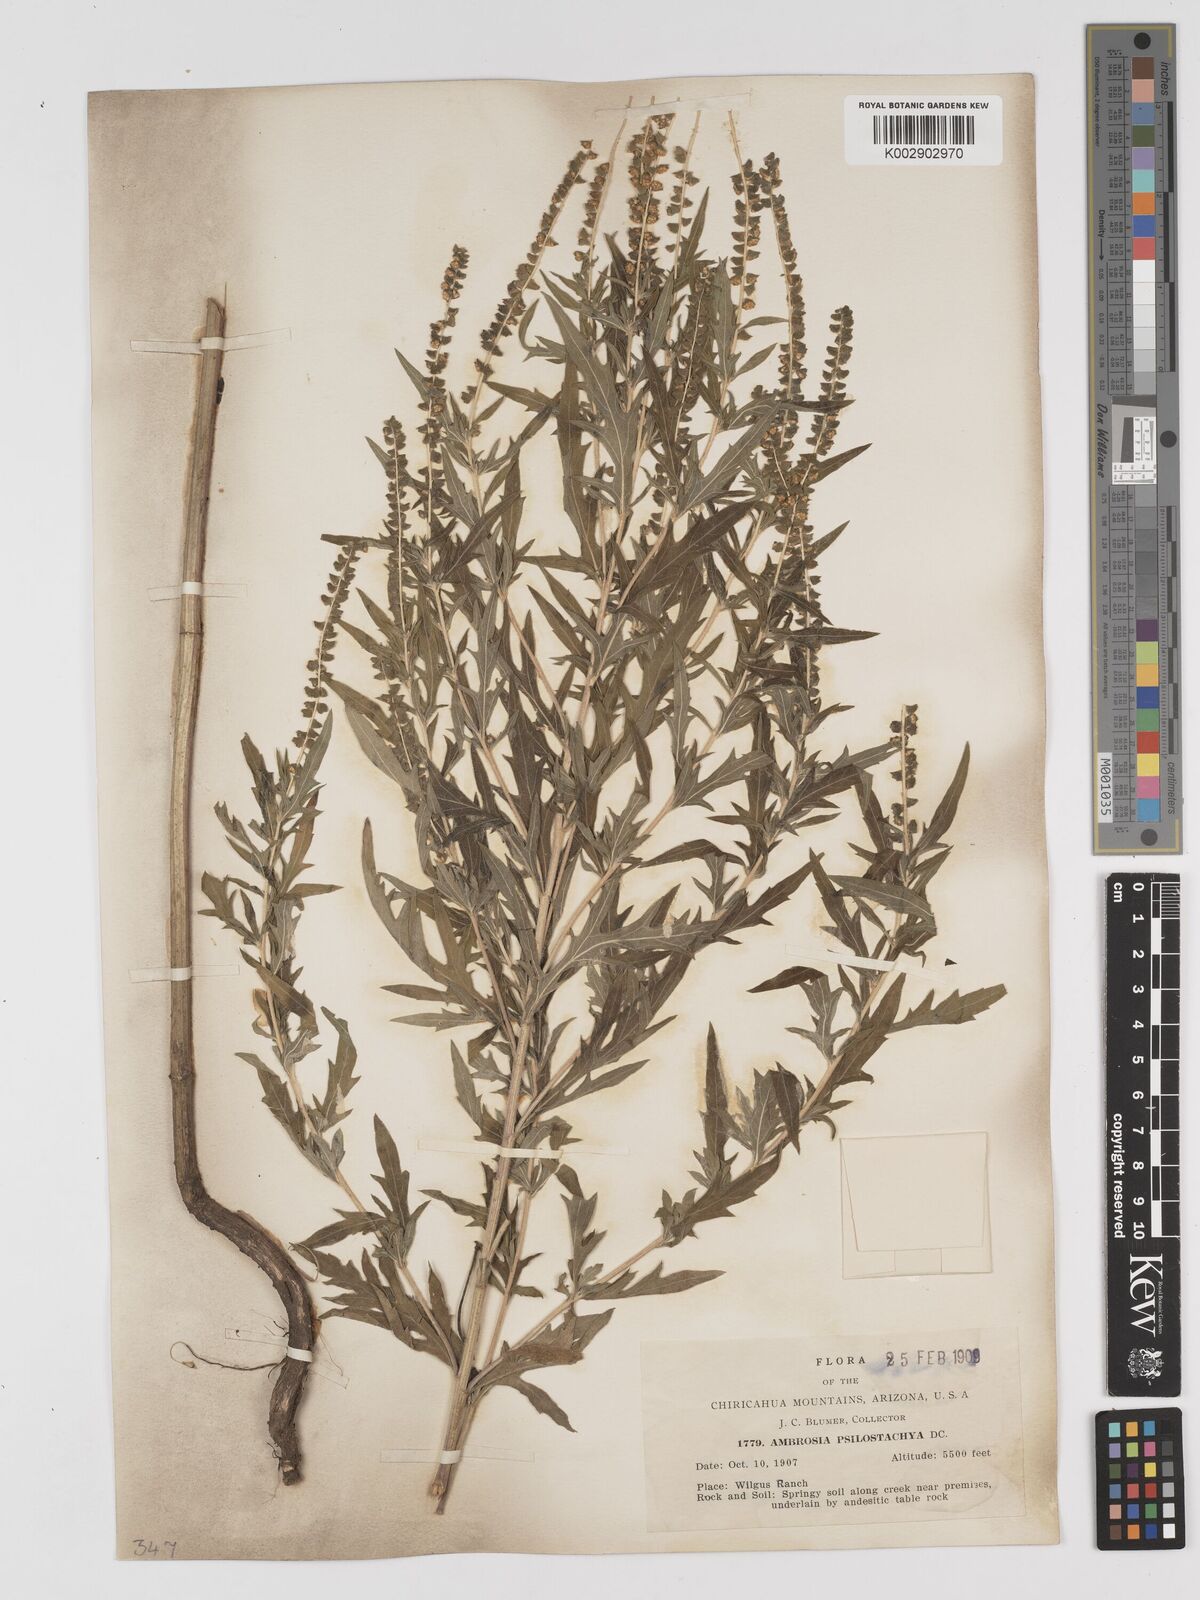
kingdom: Plantae
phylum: Tracheophyta
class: Magnoliopsida
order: Asterales
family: Asteraceae
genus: Ambrosia
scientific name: Ambrosia psilostachya
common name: Perennial ragweed
